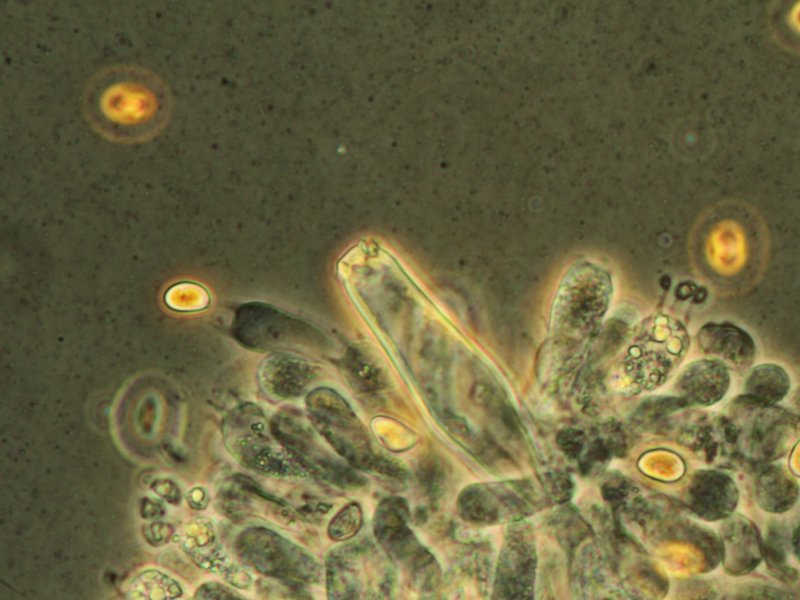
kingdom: Fungi
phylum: Basidiomycota
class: Agaricomycetes
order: Agaricales
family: Inocybaceae
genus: Inocybe
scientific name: Inocybe
